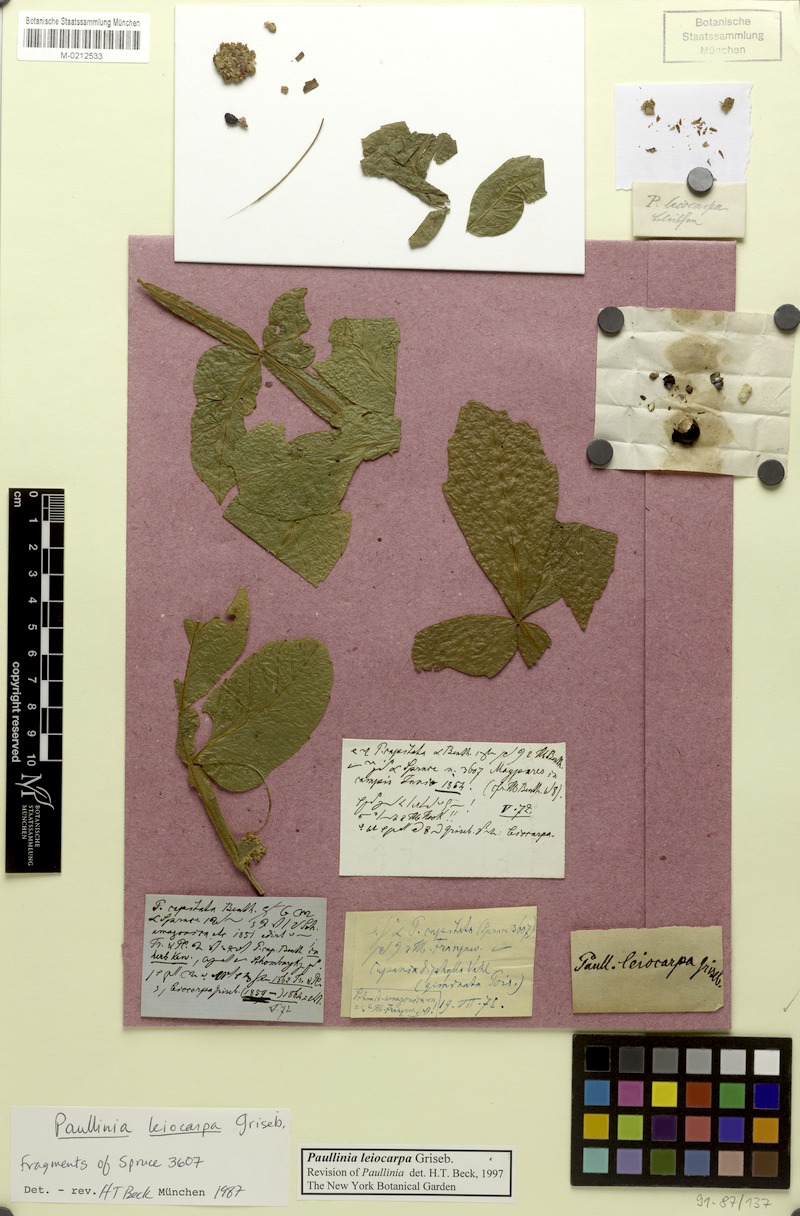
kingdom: Plantae
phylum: Tracheophyta
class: Magnoliopsida
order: Sapindales
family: Sapindaceae
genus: Paullinia
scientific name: Paullinia leiocarpa
